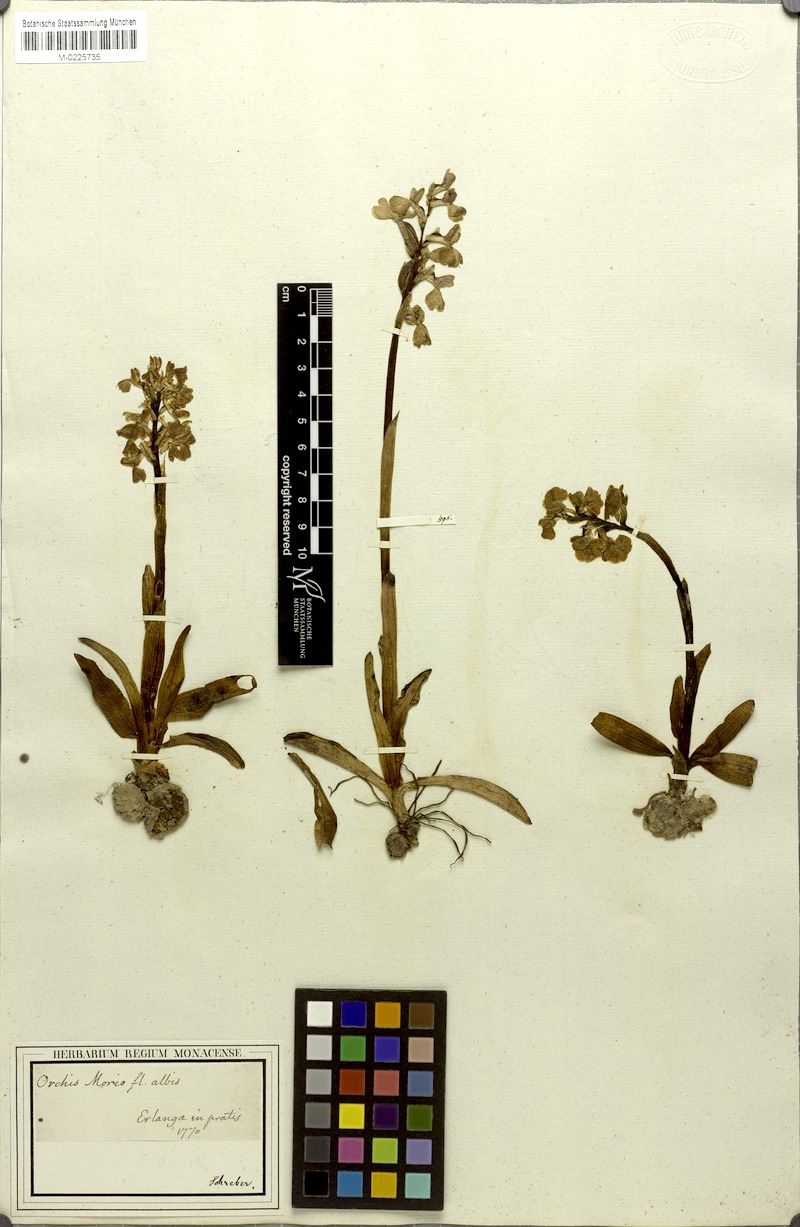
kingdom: Plantae
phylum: Tracheophyta
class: Liliopsida
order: Asparagales
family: Orchidaceae
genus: Anacamptis
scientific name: Anacamptis morio
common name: Green-winged orchid
